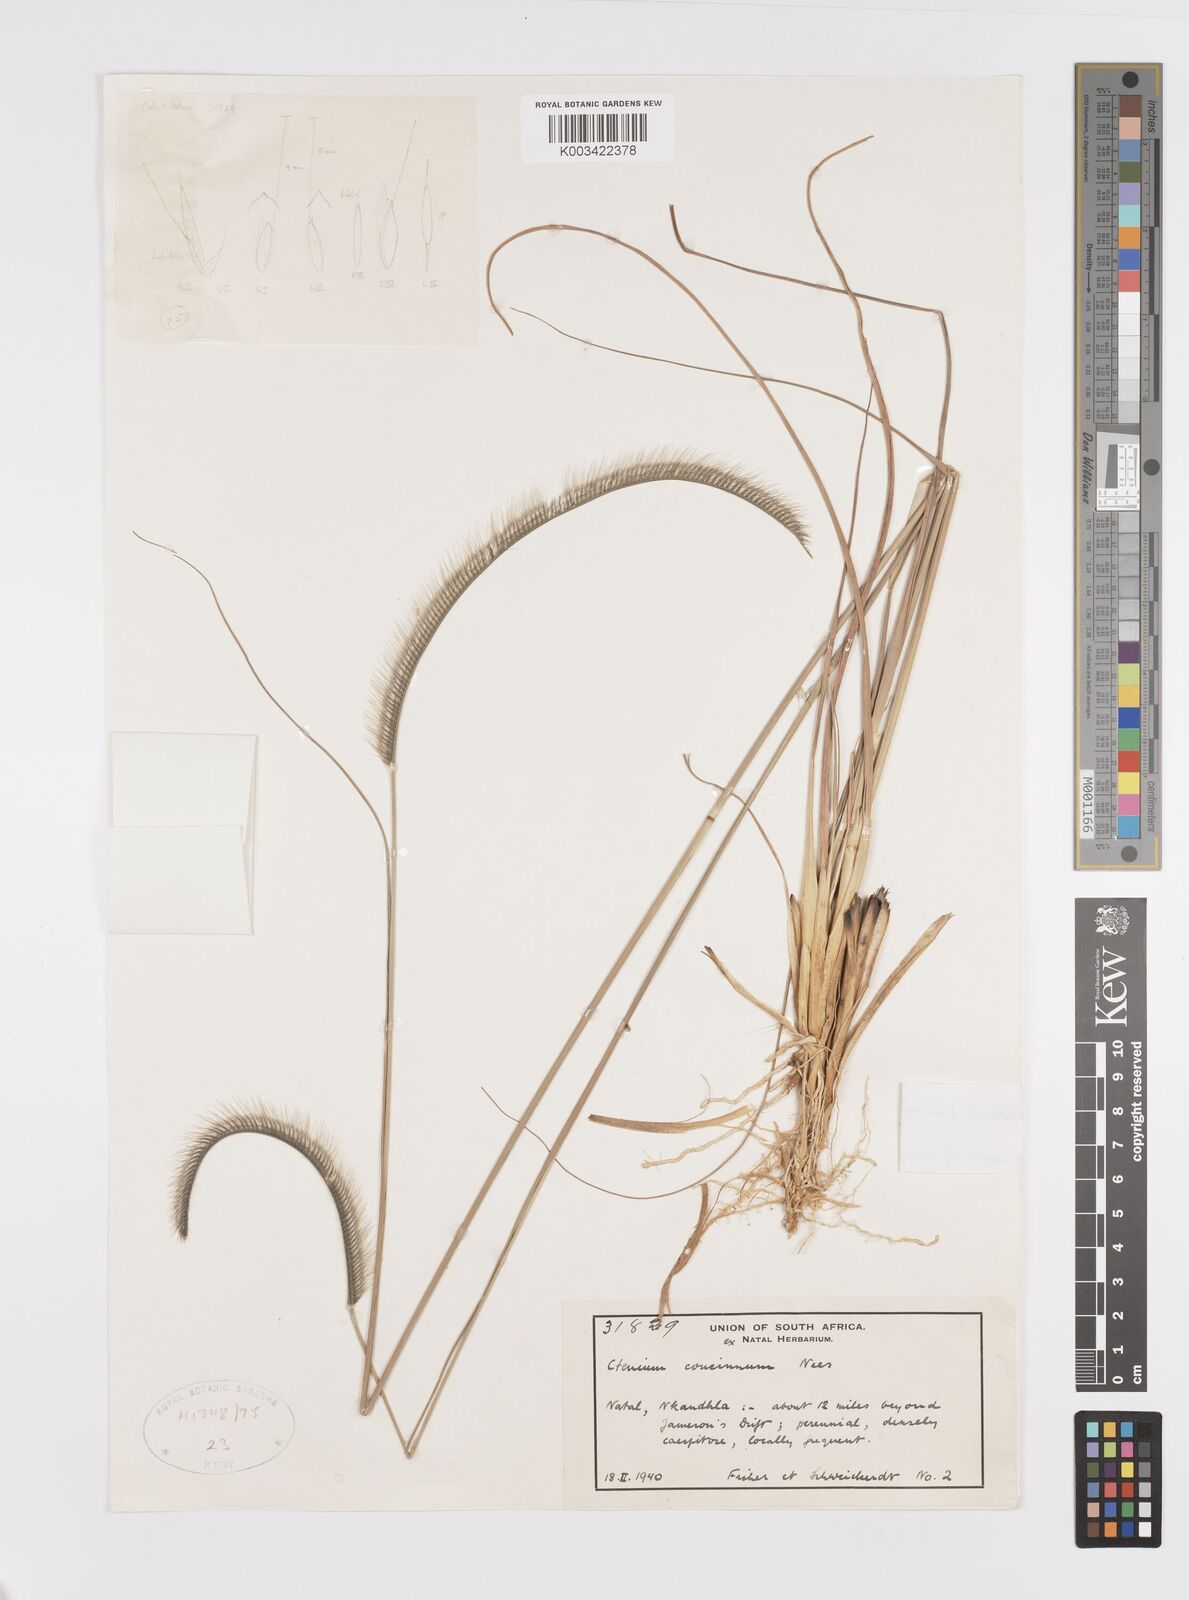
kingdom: Plantae
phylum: Tracheophyta
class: Liliopsida
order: Poales
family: Poaceae
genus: Ctenium
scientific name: Ctenium concinnum
